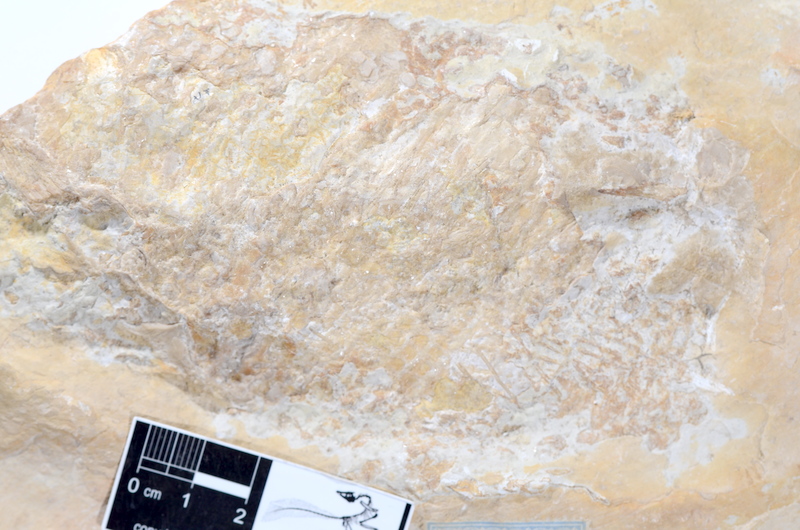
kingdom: Animalia
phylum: Chordata
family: Ankylophoridae
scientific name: Ankylophoridae
